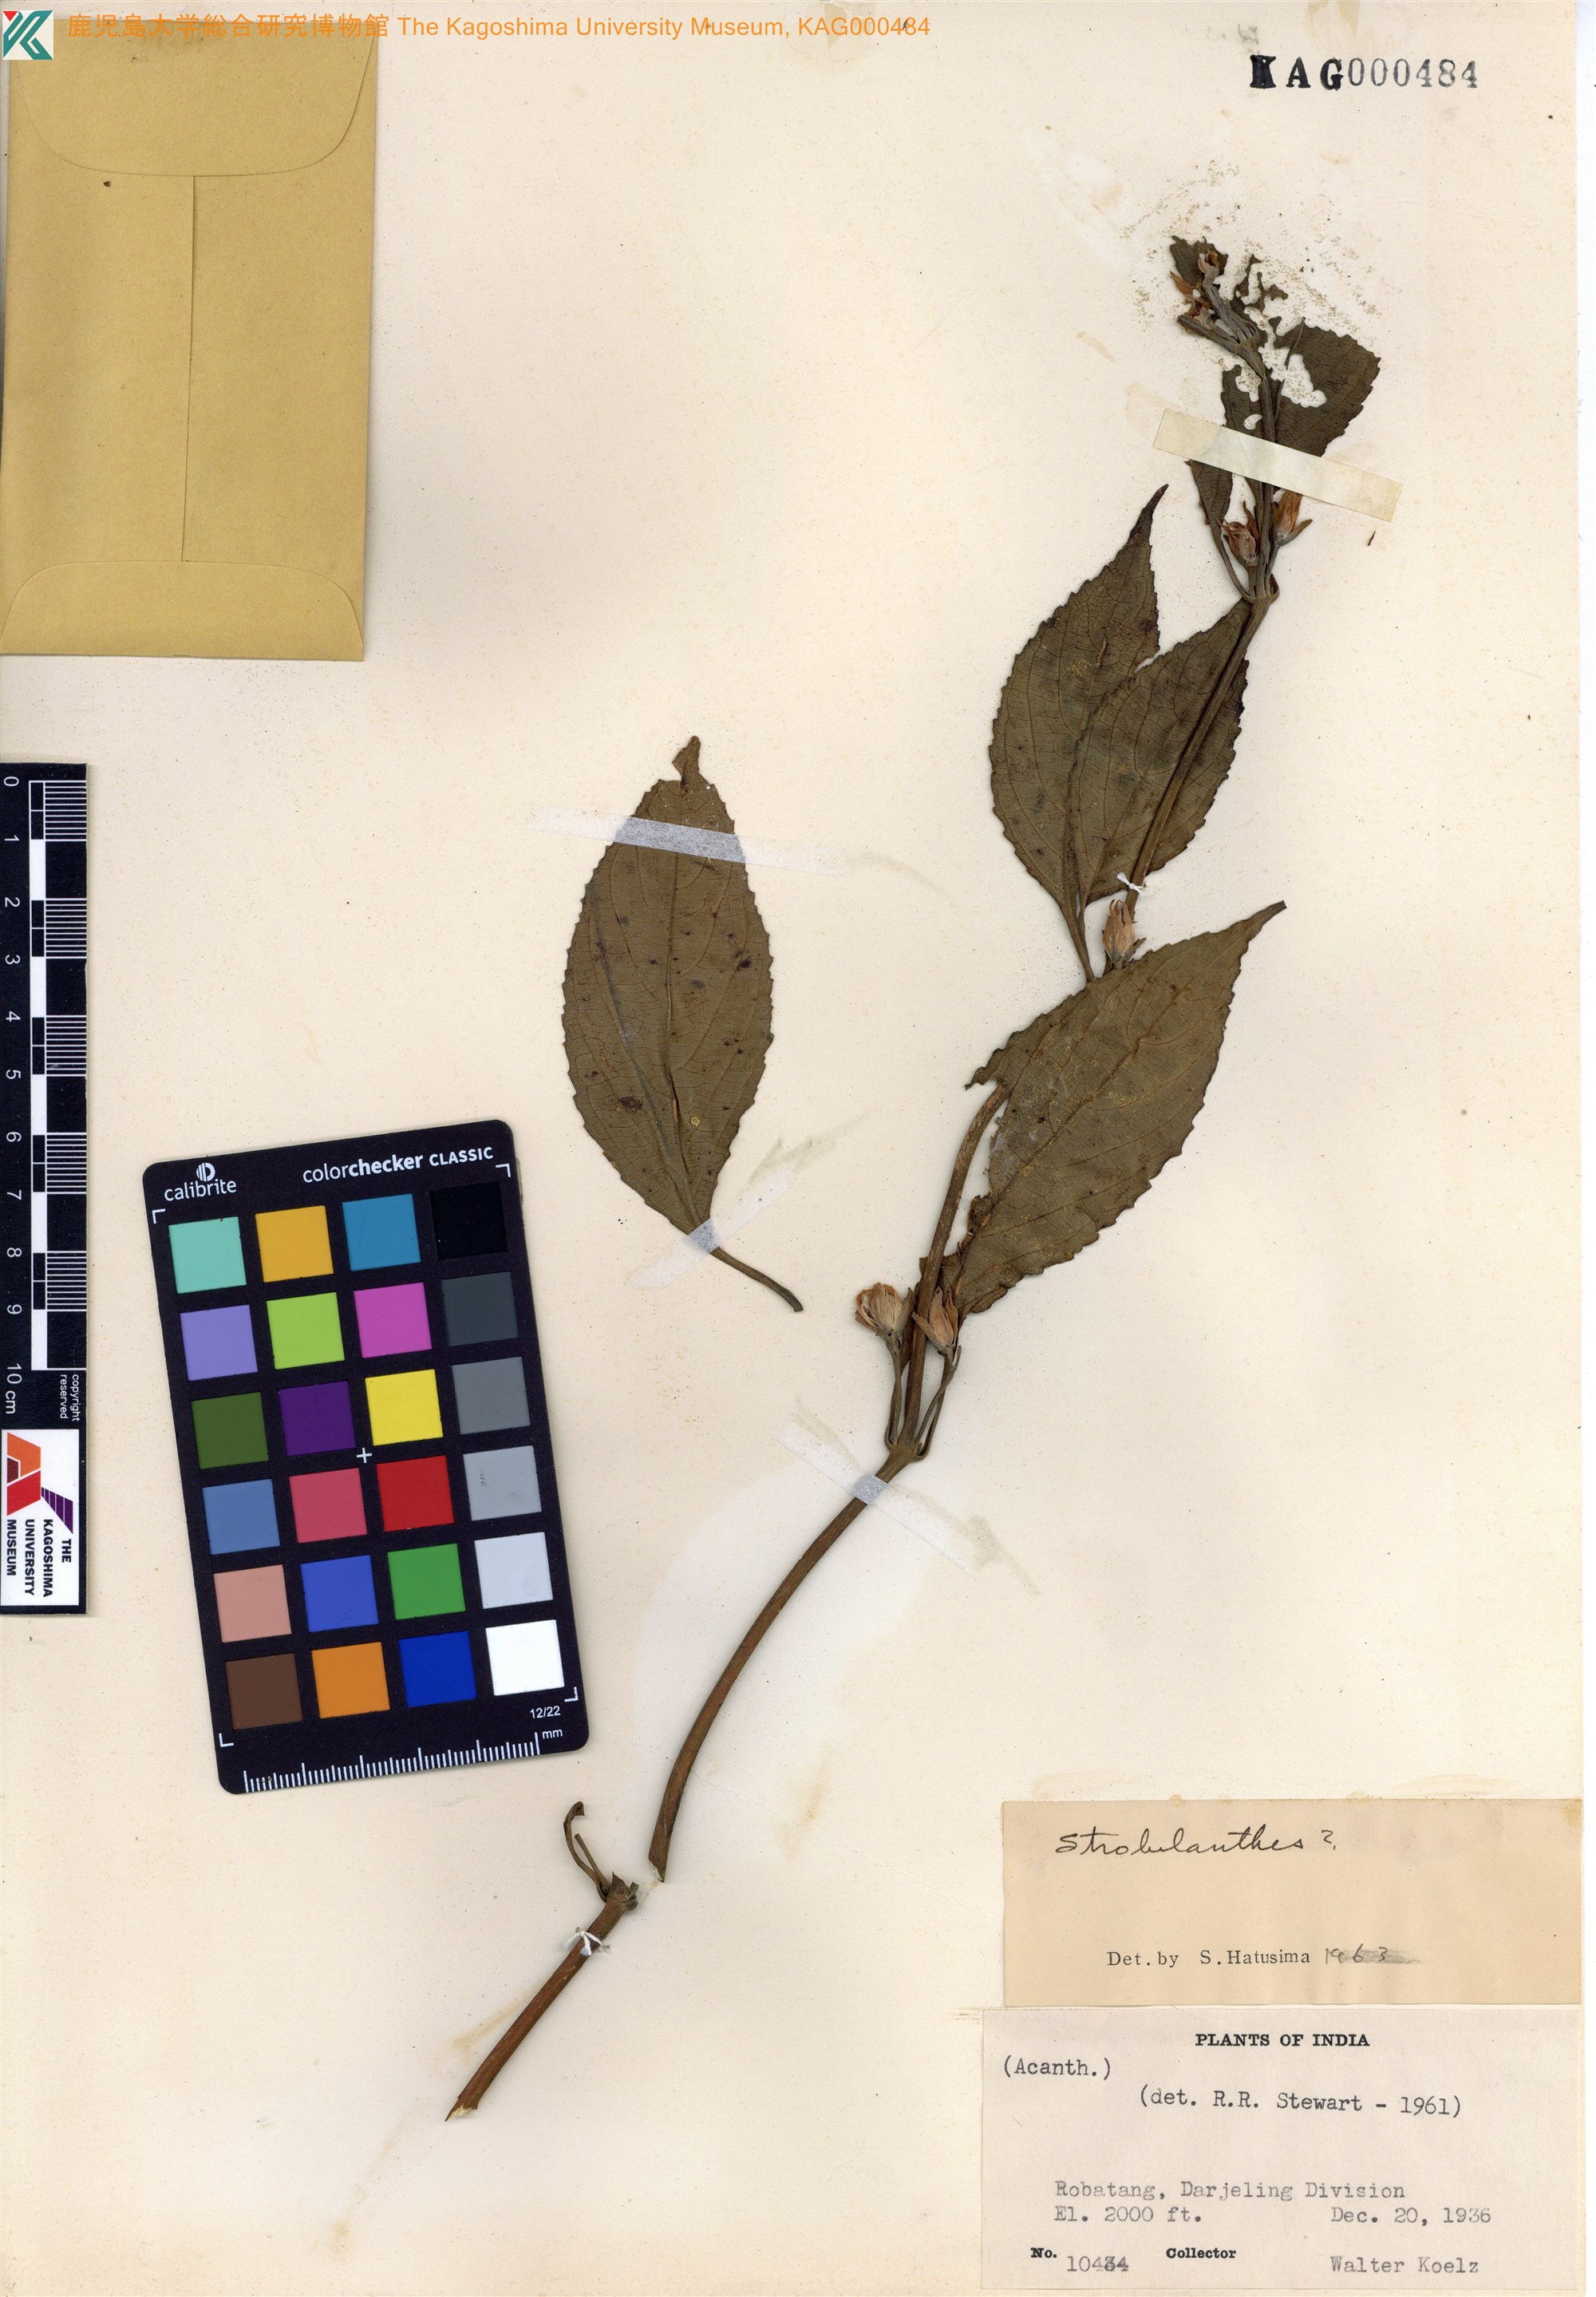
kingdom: Plantae
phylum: Tracheophyta
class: Magnoliopsida
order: Lamiales
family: Acanthaceae
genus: Strobilanthes
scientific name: Strobilanthes
